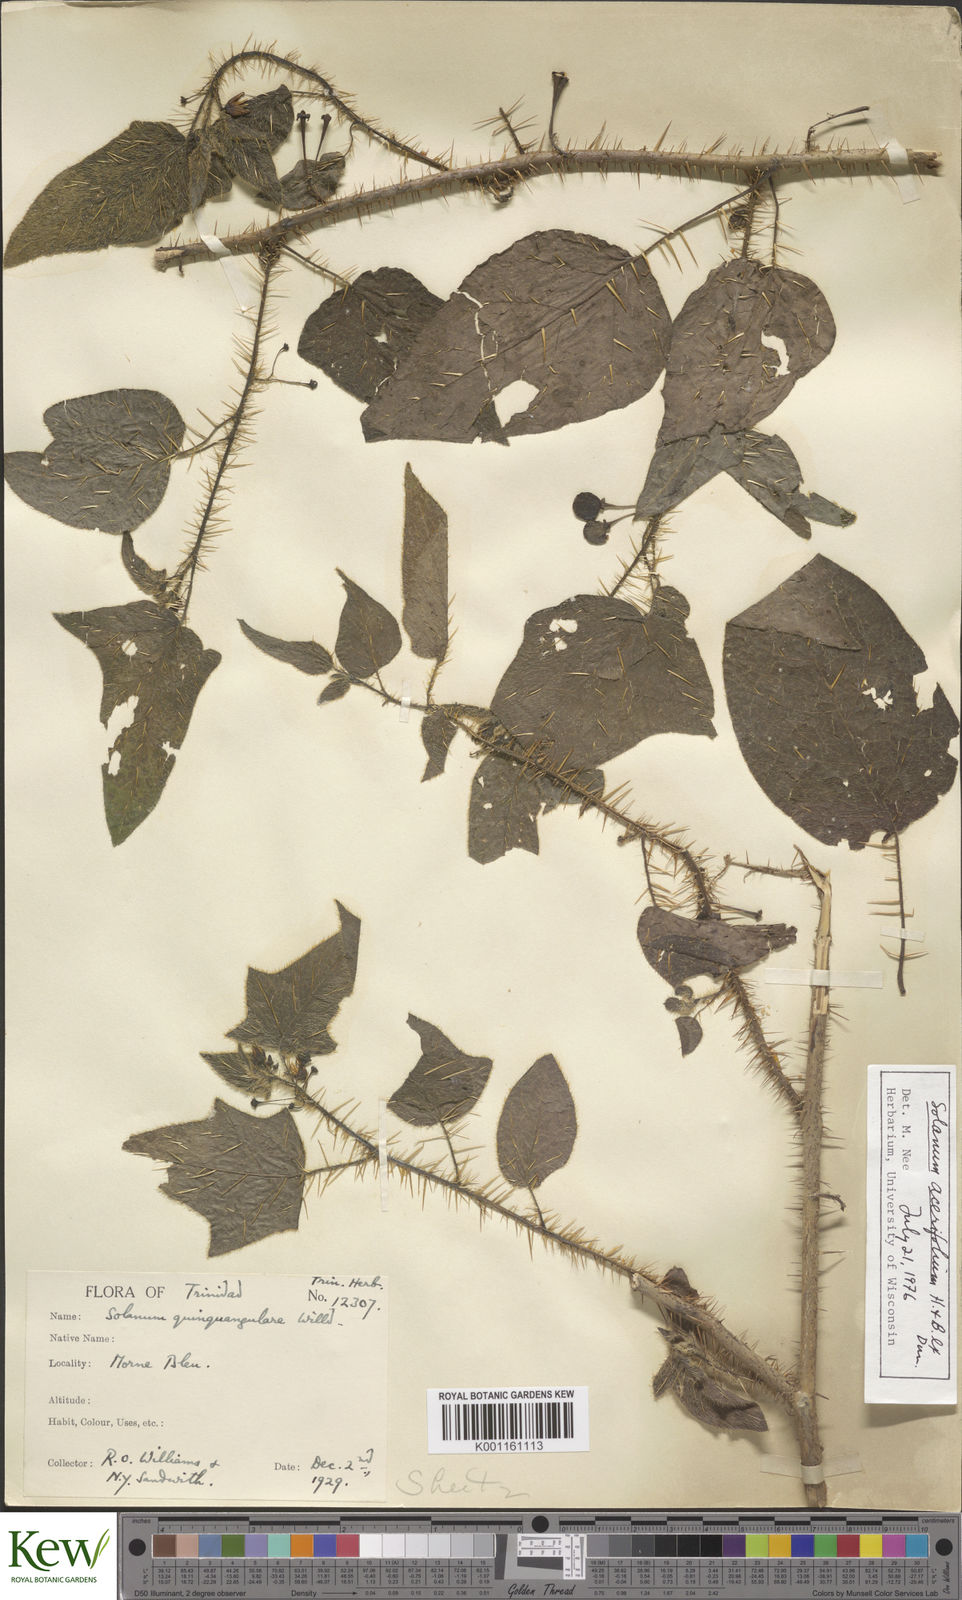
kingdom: Plantae
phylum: Tracheophyta
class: Magnoliopsida
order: Solanales
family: Solanaceae
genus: Solanum
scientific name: Solanum
